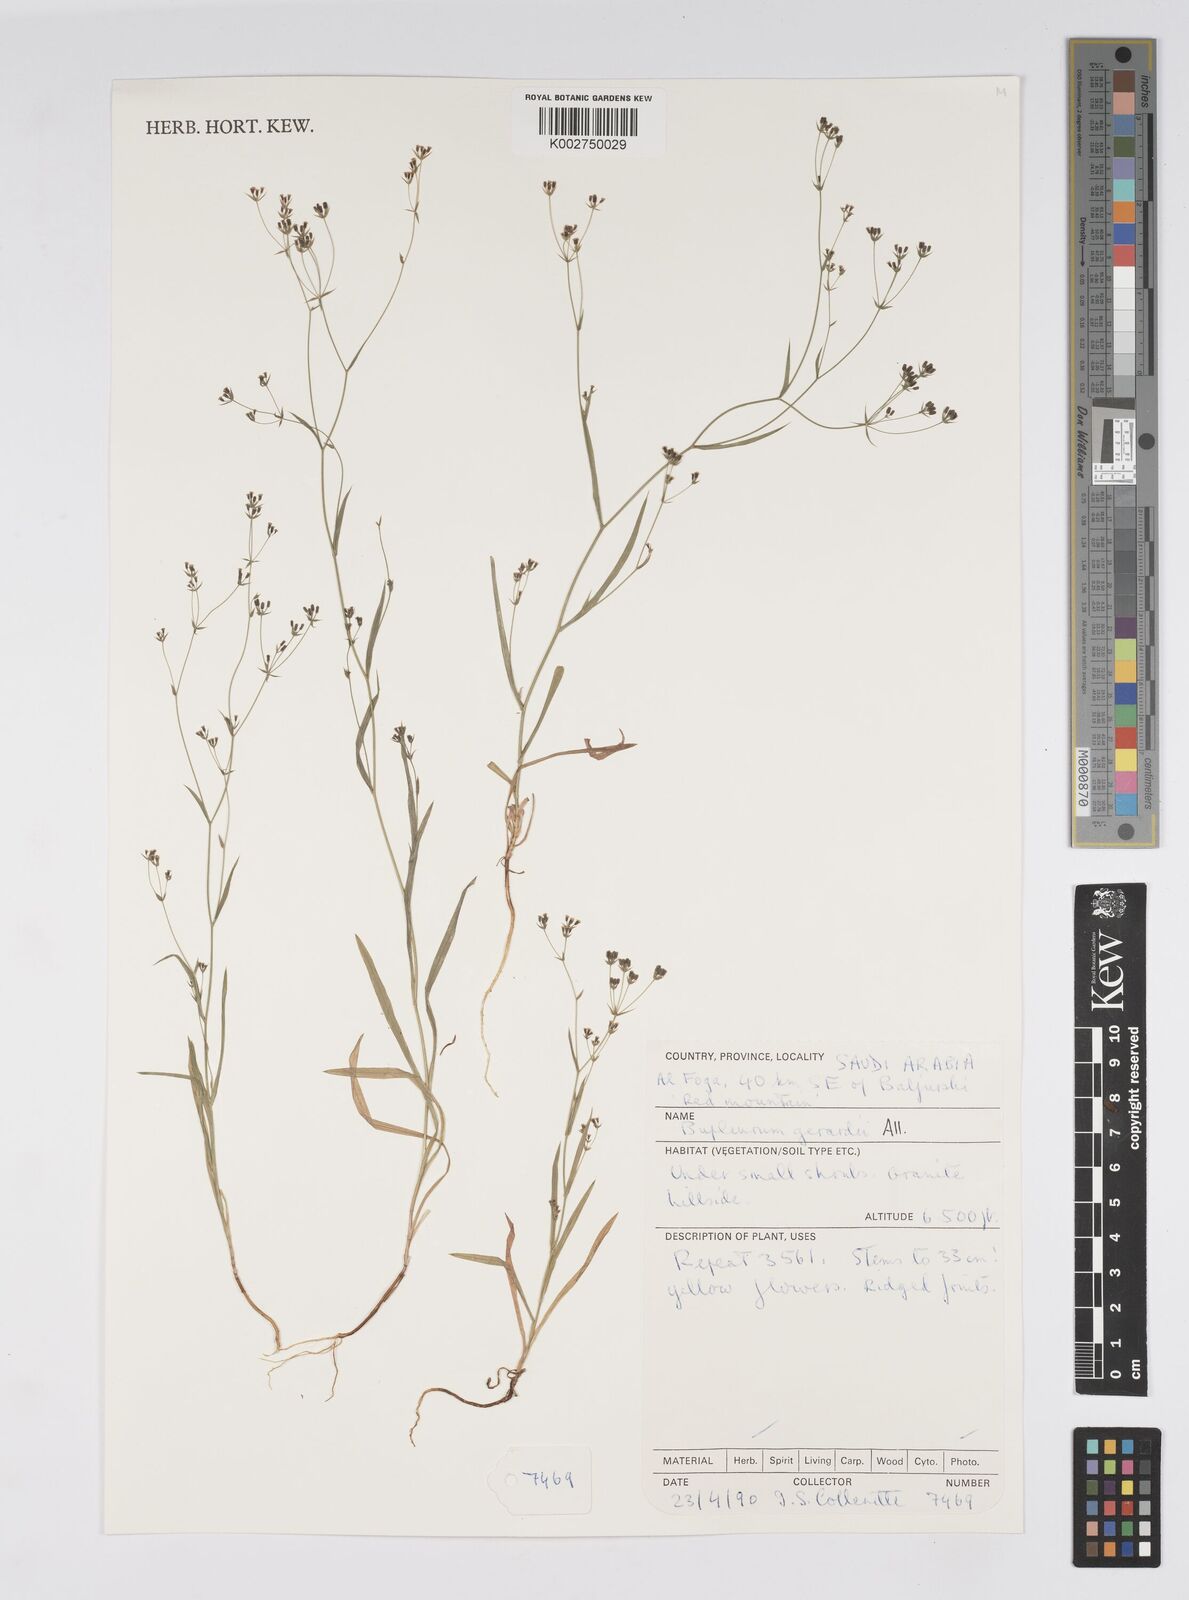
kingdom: Plantae
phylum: Tracheophyta
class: Magnoliopsida
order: Apiales
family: Apiaceae
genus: Bupleurum
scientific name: Bupleurum gerardi
